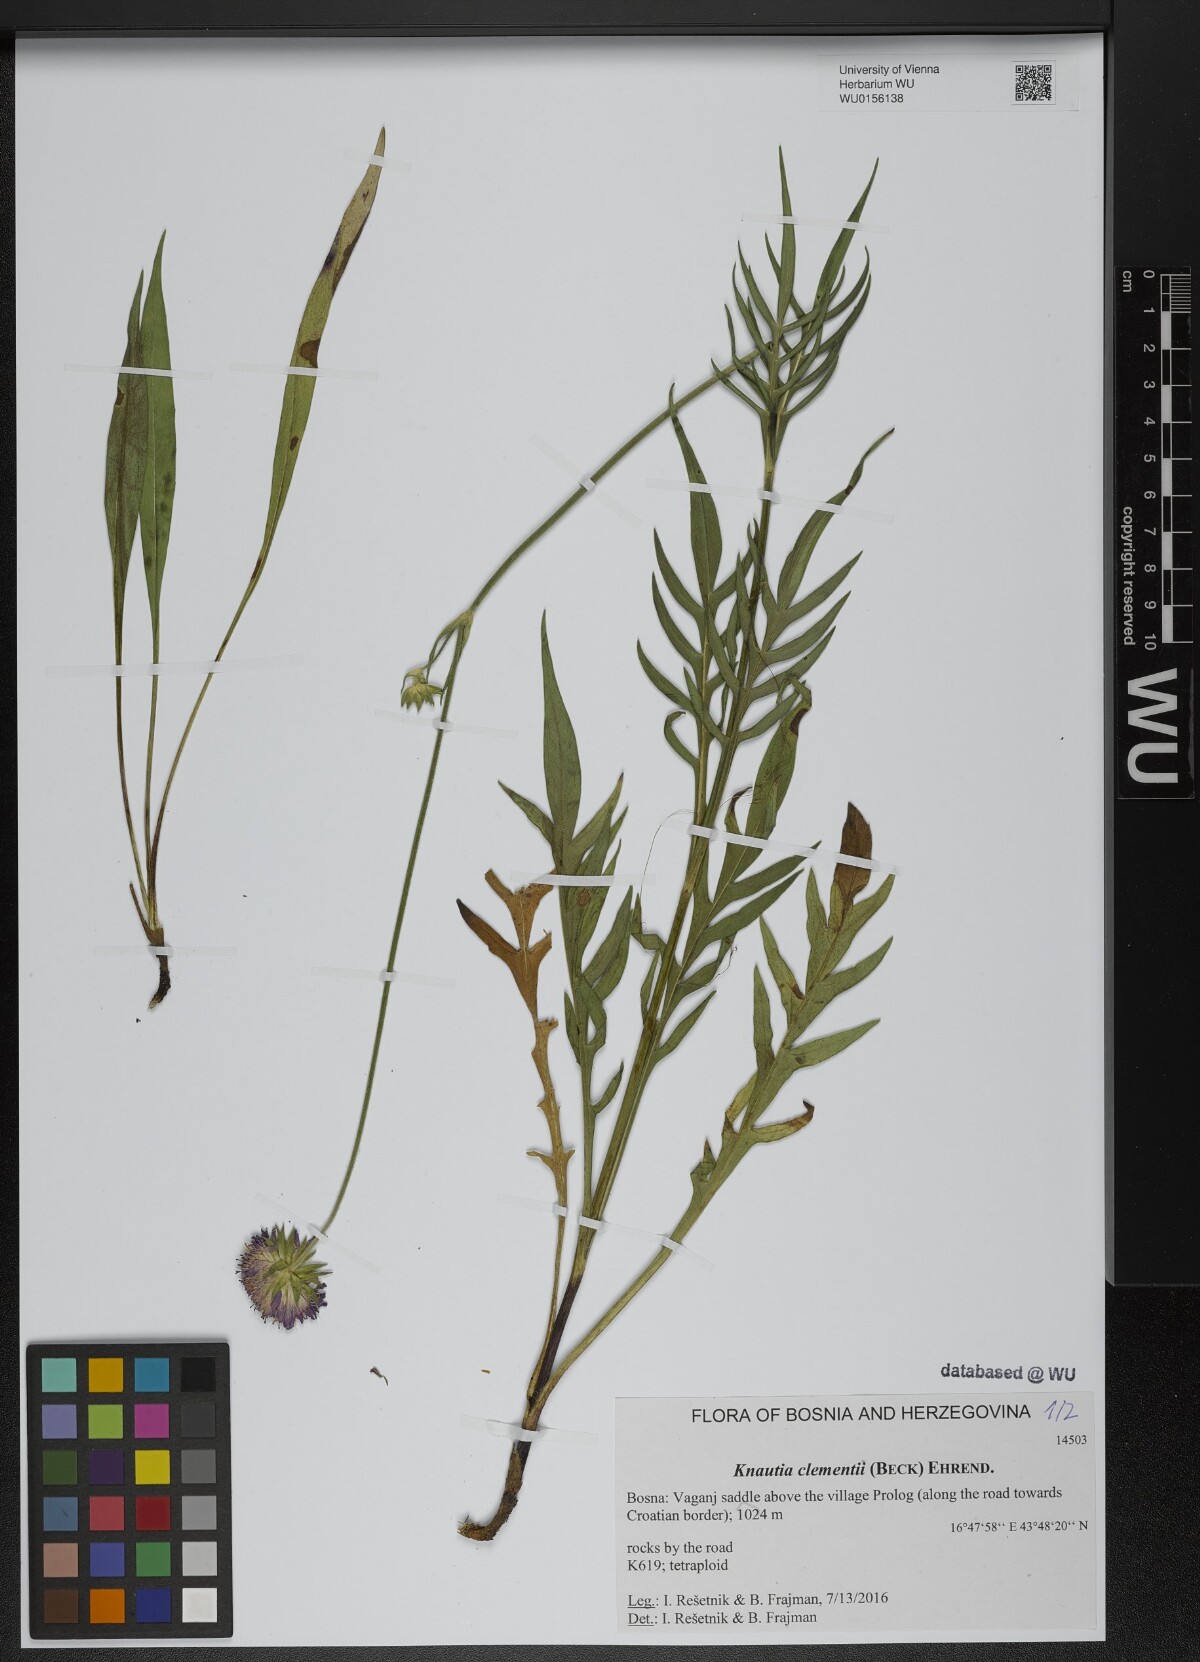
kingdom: Plantae
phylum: Tracheophyta
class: Magnoliopsida
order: Dipsacales
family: Caprifoliaceae
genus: Knautia
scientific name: Knautia clementii
